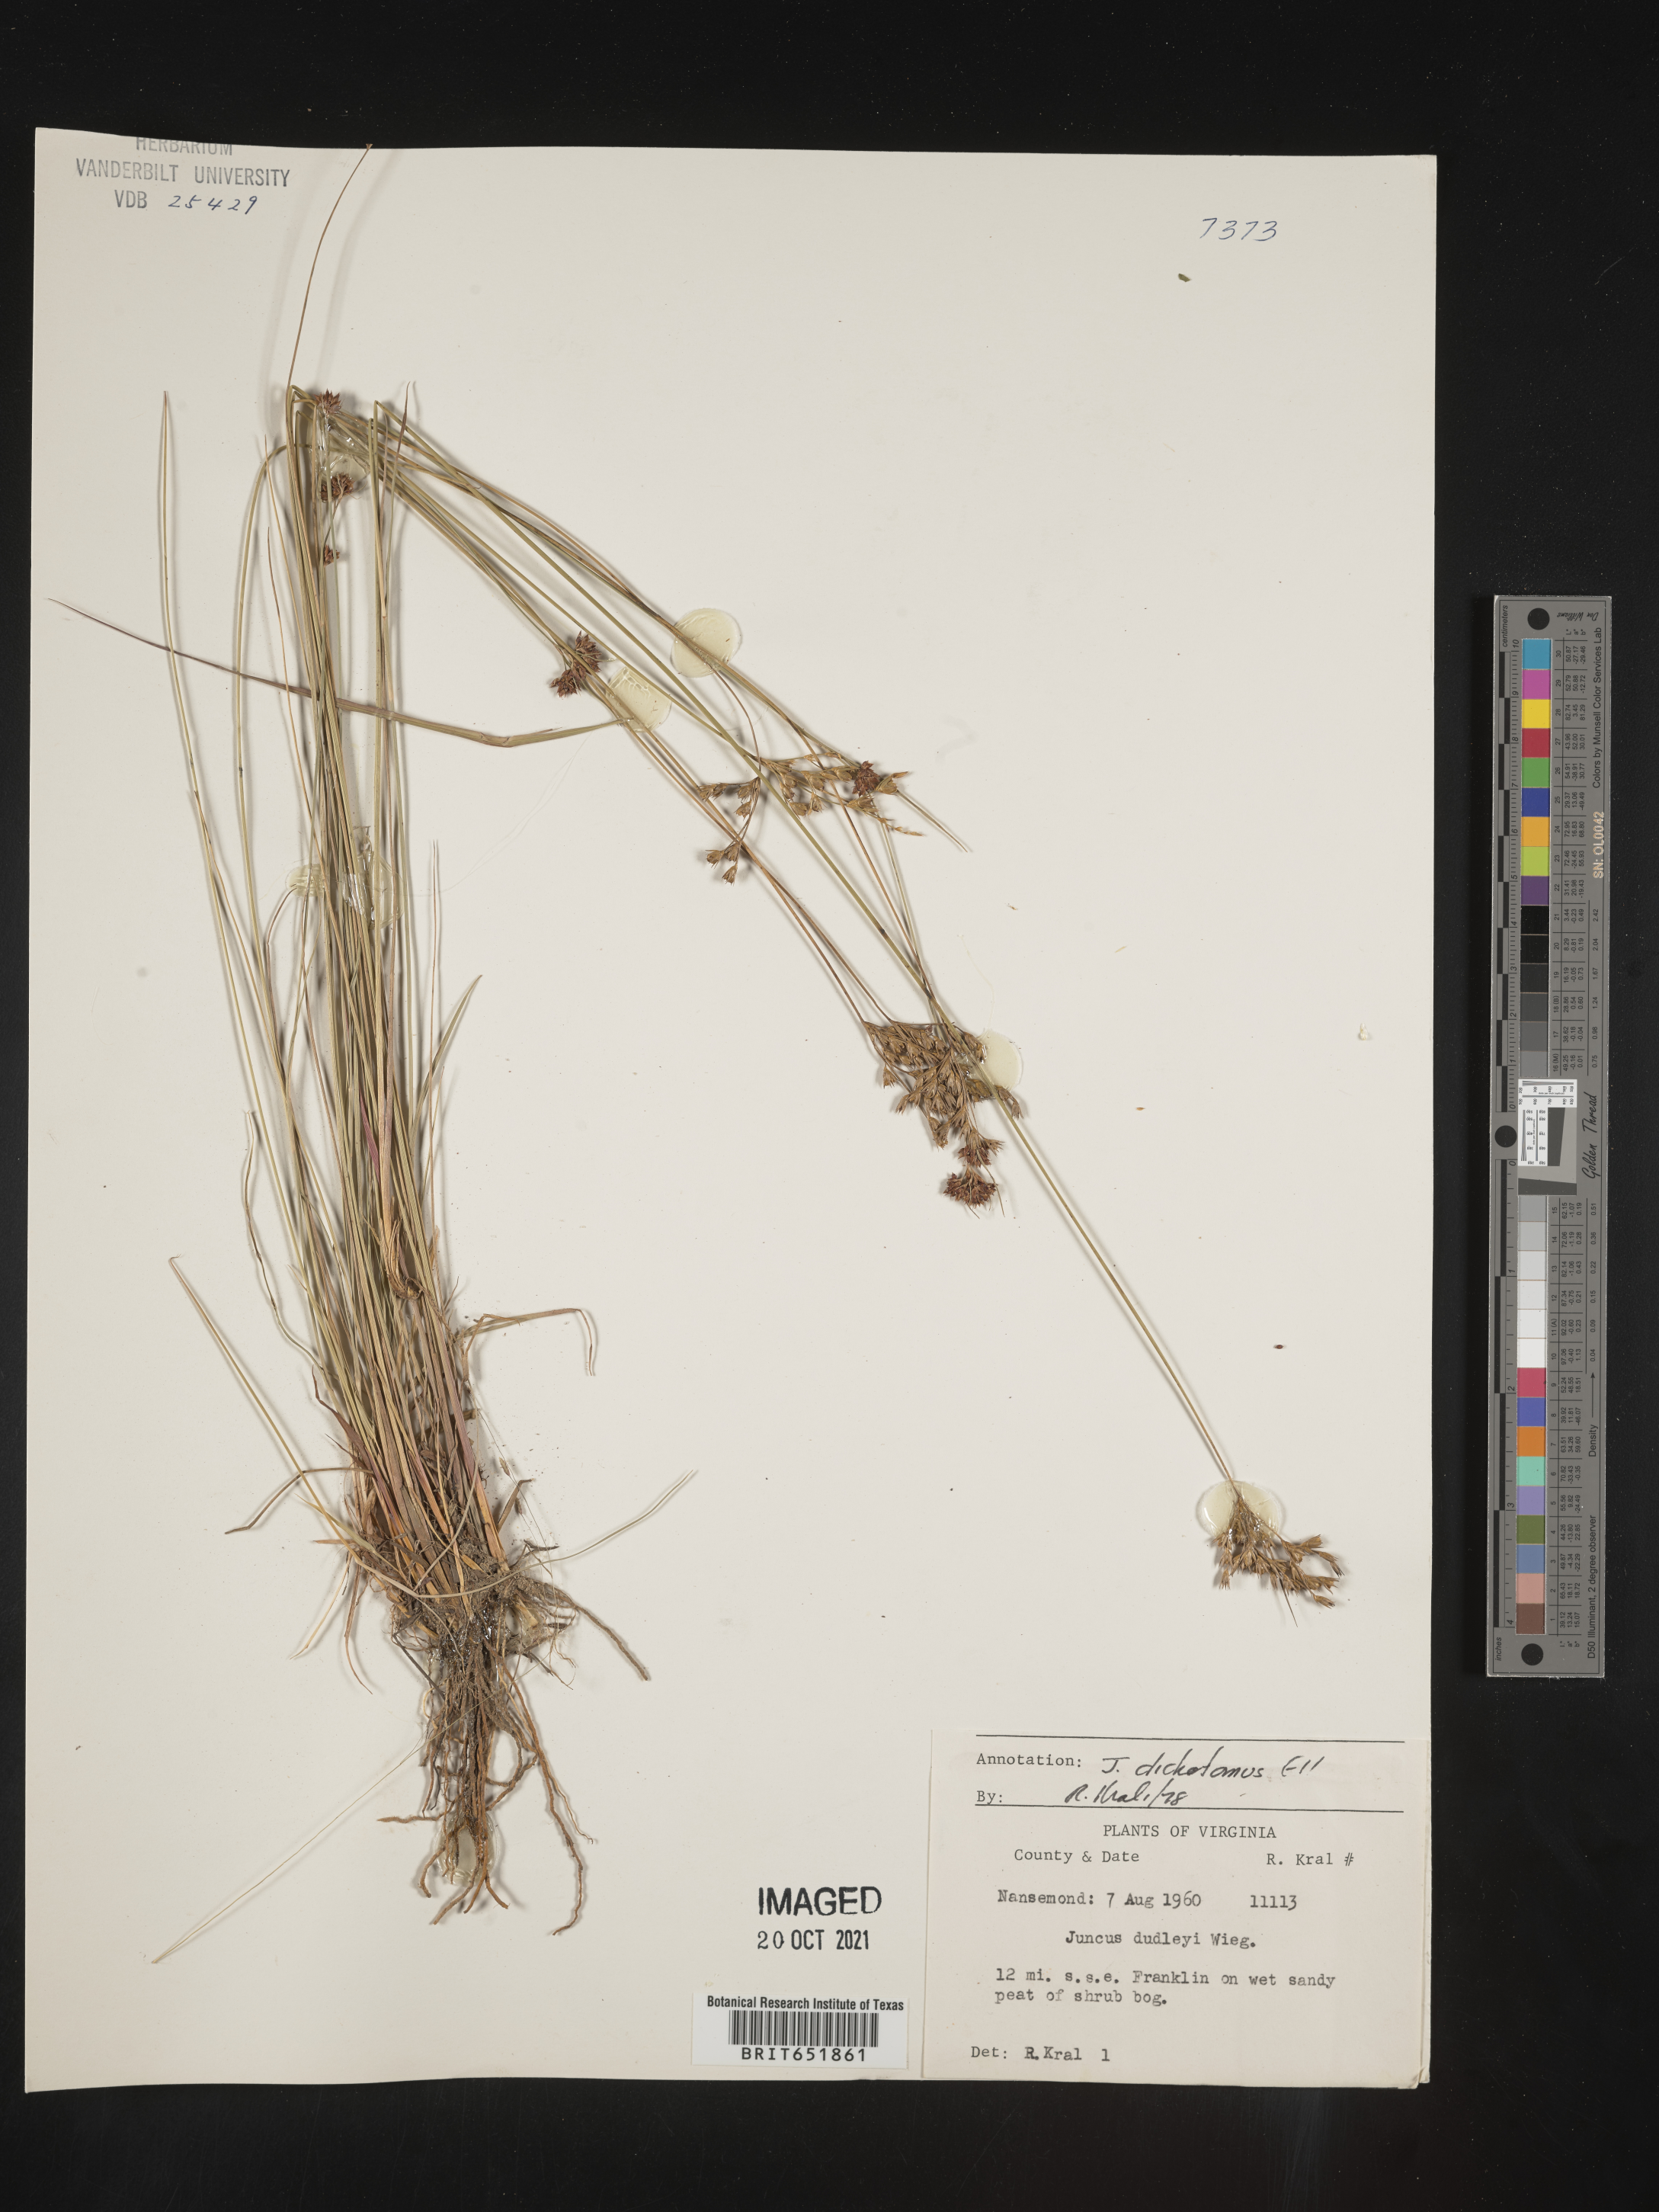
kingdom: Plantae
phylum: Tracheophyta
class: Liliopsida
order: Poales
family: Juncaceae
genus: Juncus
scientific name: Juncus dichotomus
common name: Forked rush
